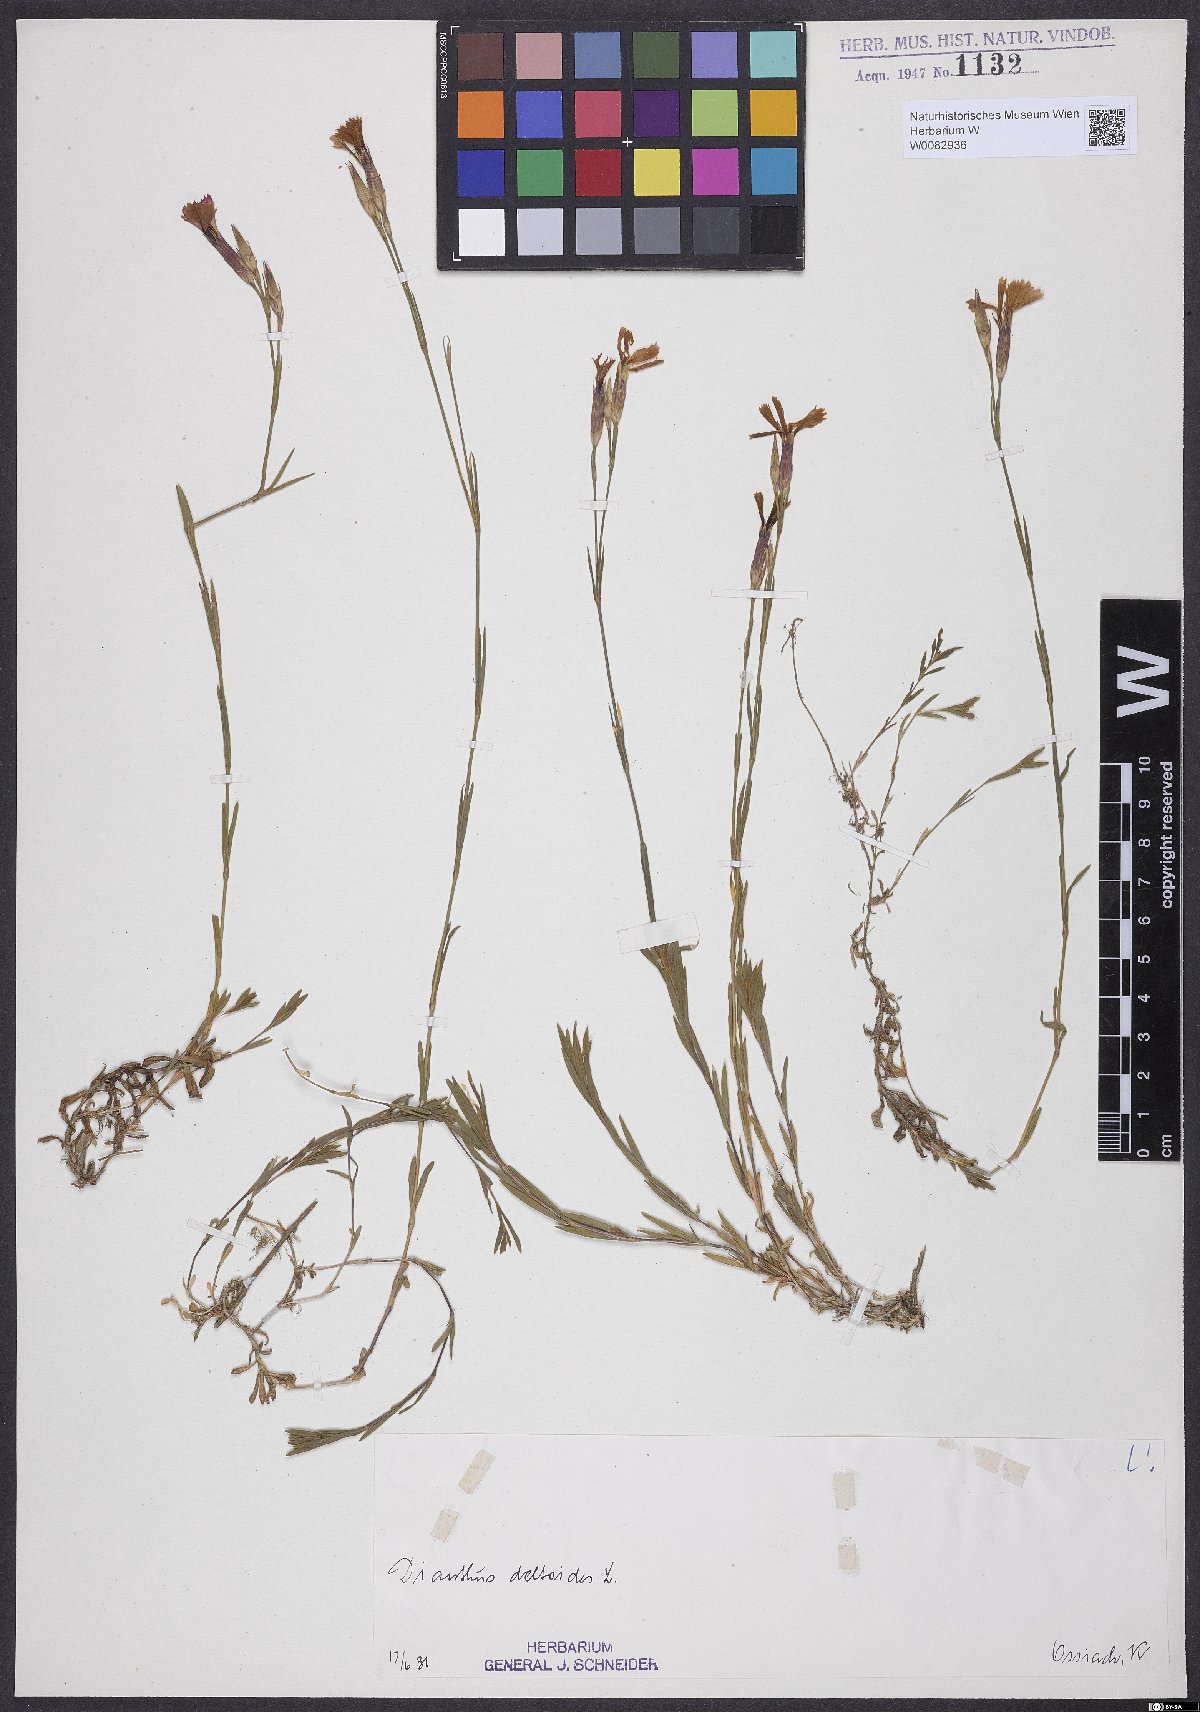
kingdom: Plantae
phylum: Tracheophyta
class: Magnoliopsida
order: Caryophyllales
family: Caryophyllaceae
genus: Dianthus
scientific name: Dianthus deltoides
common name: Maiden pink
